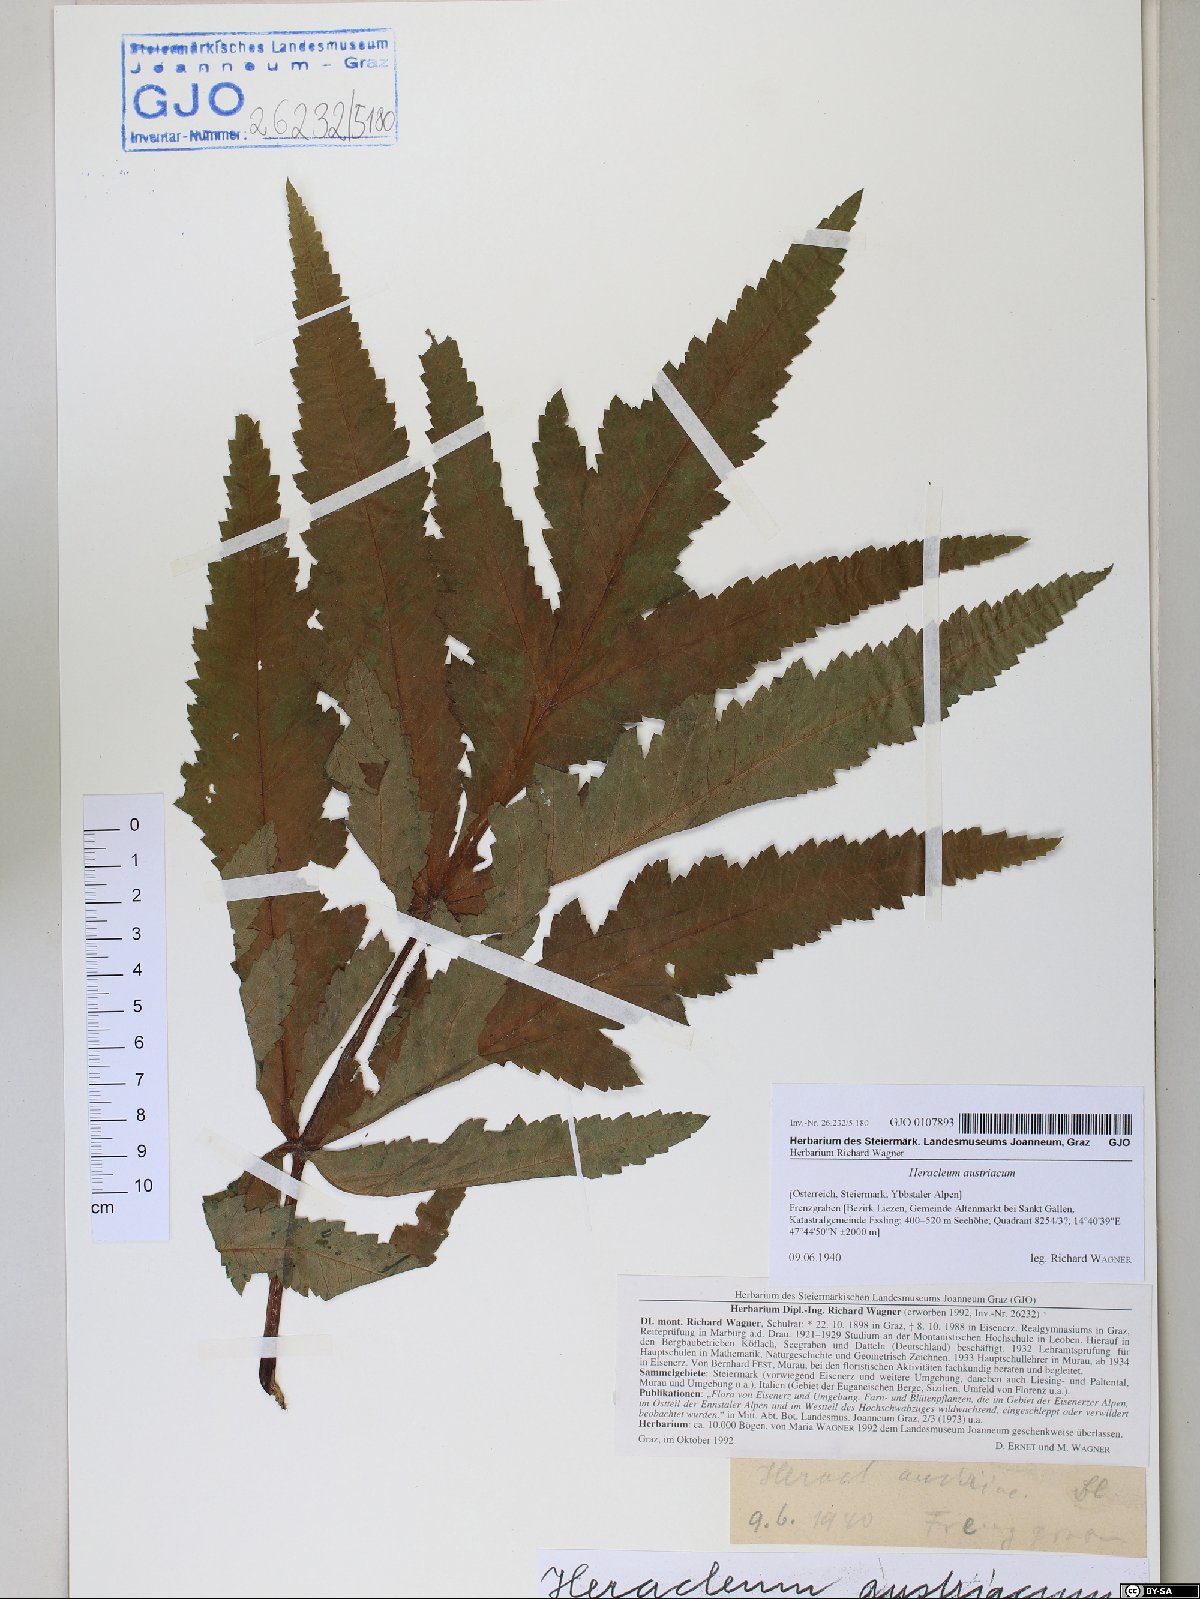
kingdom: Plantae
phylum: Tracheophyta
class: Magnoliopsida
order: Apiales
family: Apiaceae
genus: Heracleum
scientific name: Heracleum austriacum
